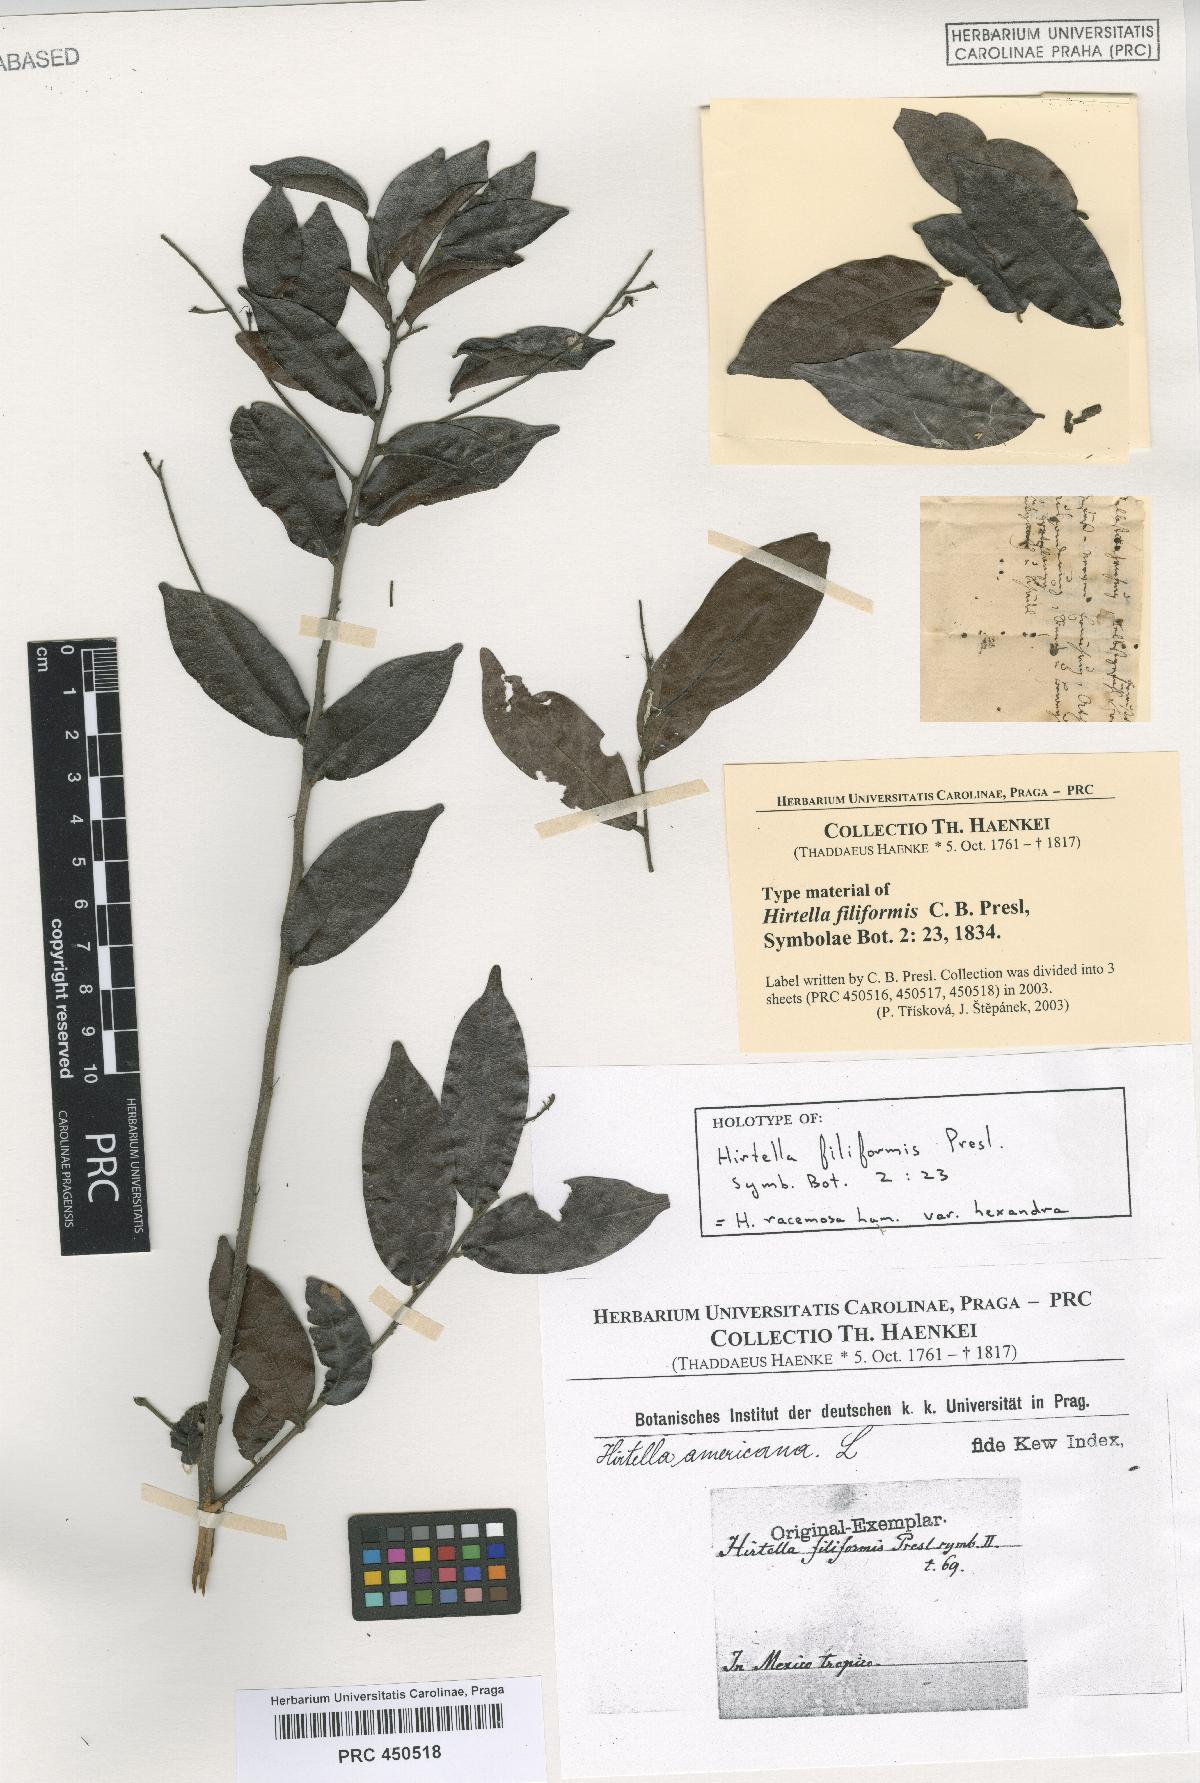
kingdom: Plantae
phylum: Tracheophyta
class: Magnoliopsida
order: Malpighiales
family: Chrysobalanaceae
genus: Hirtella
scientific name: Hirtella racemosa
